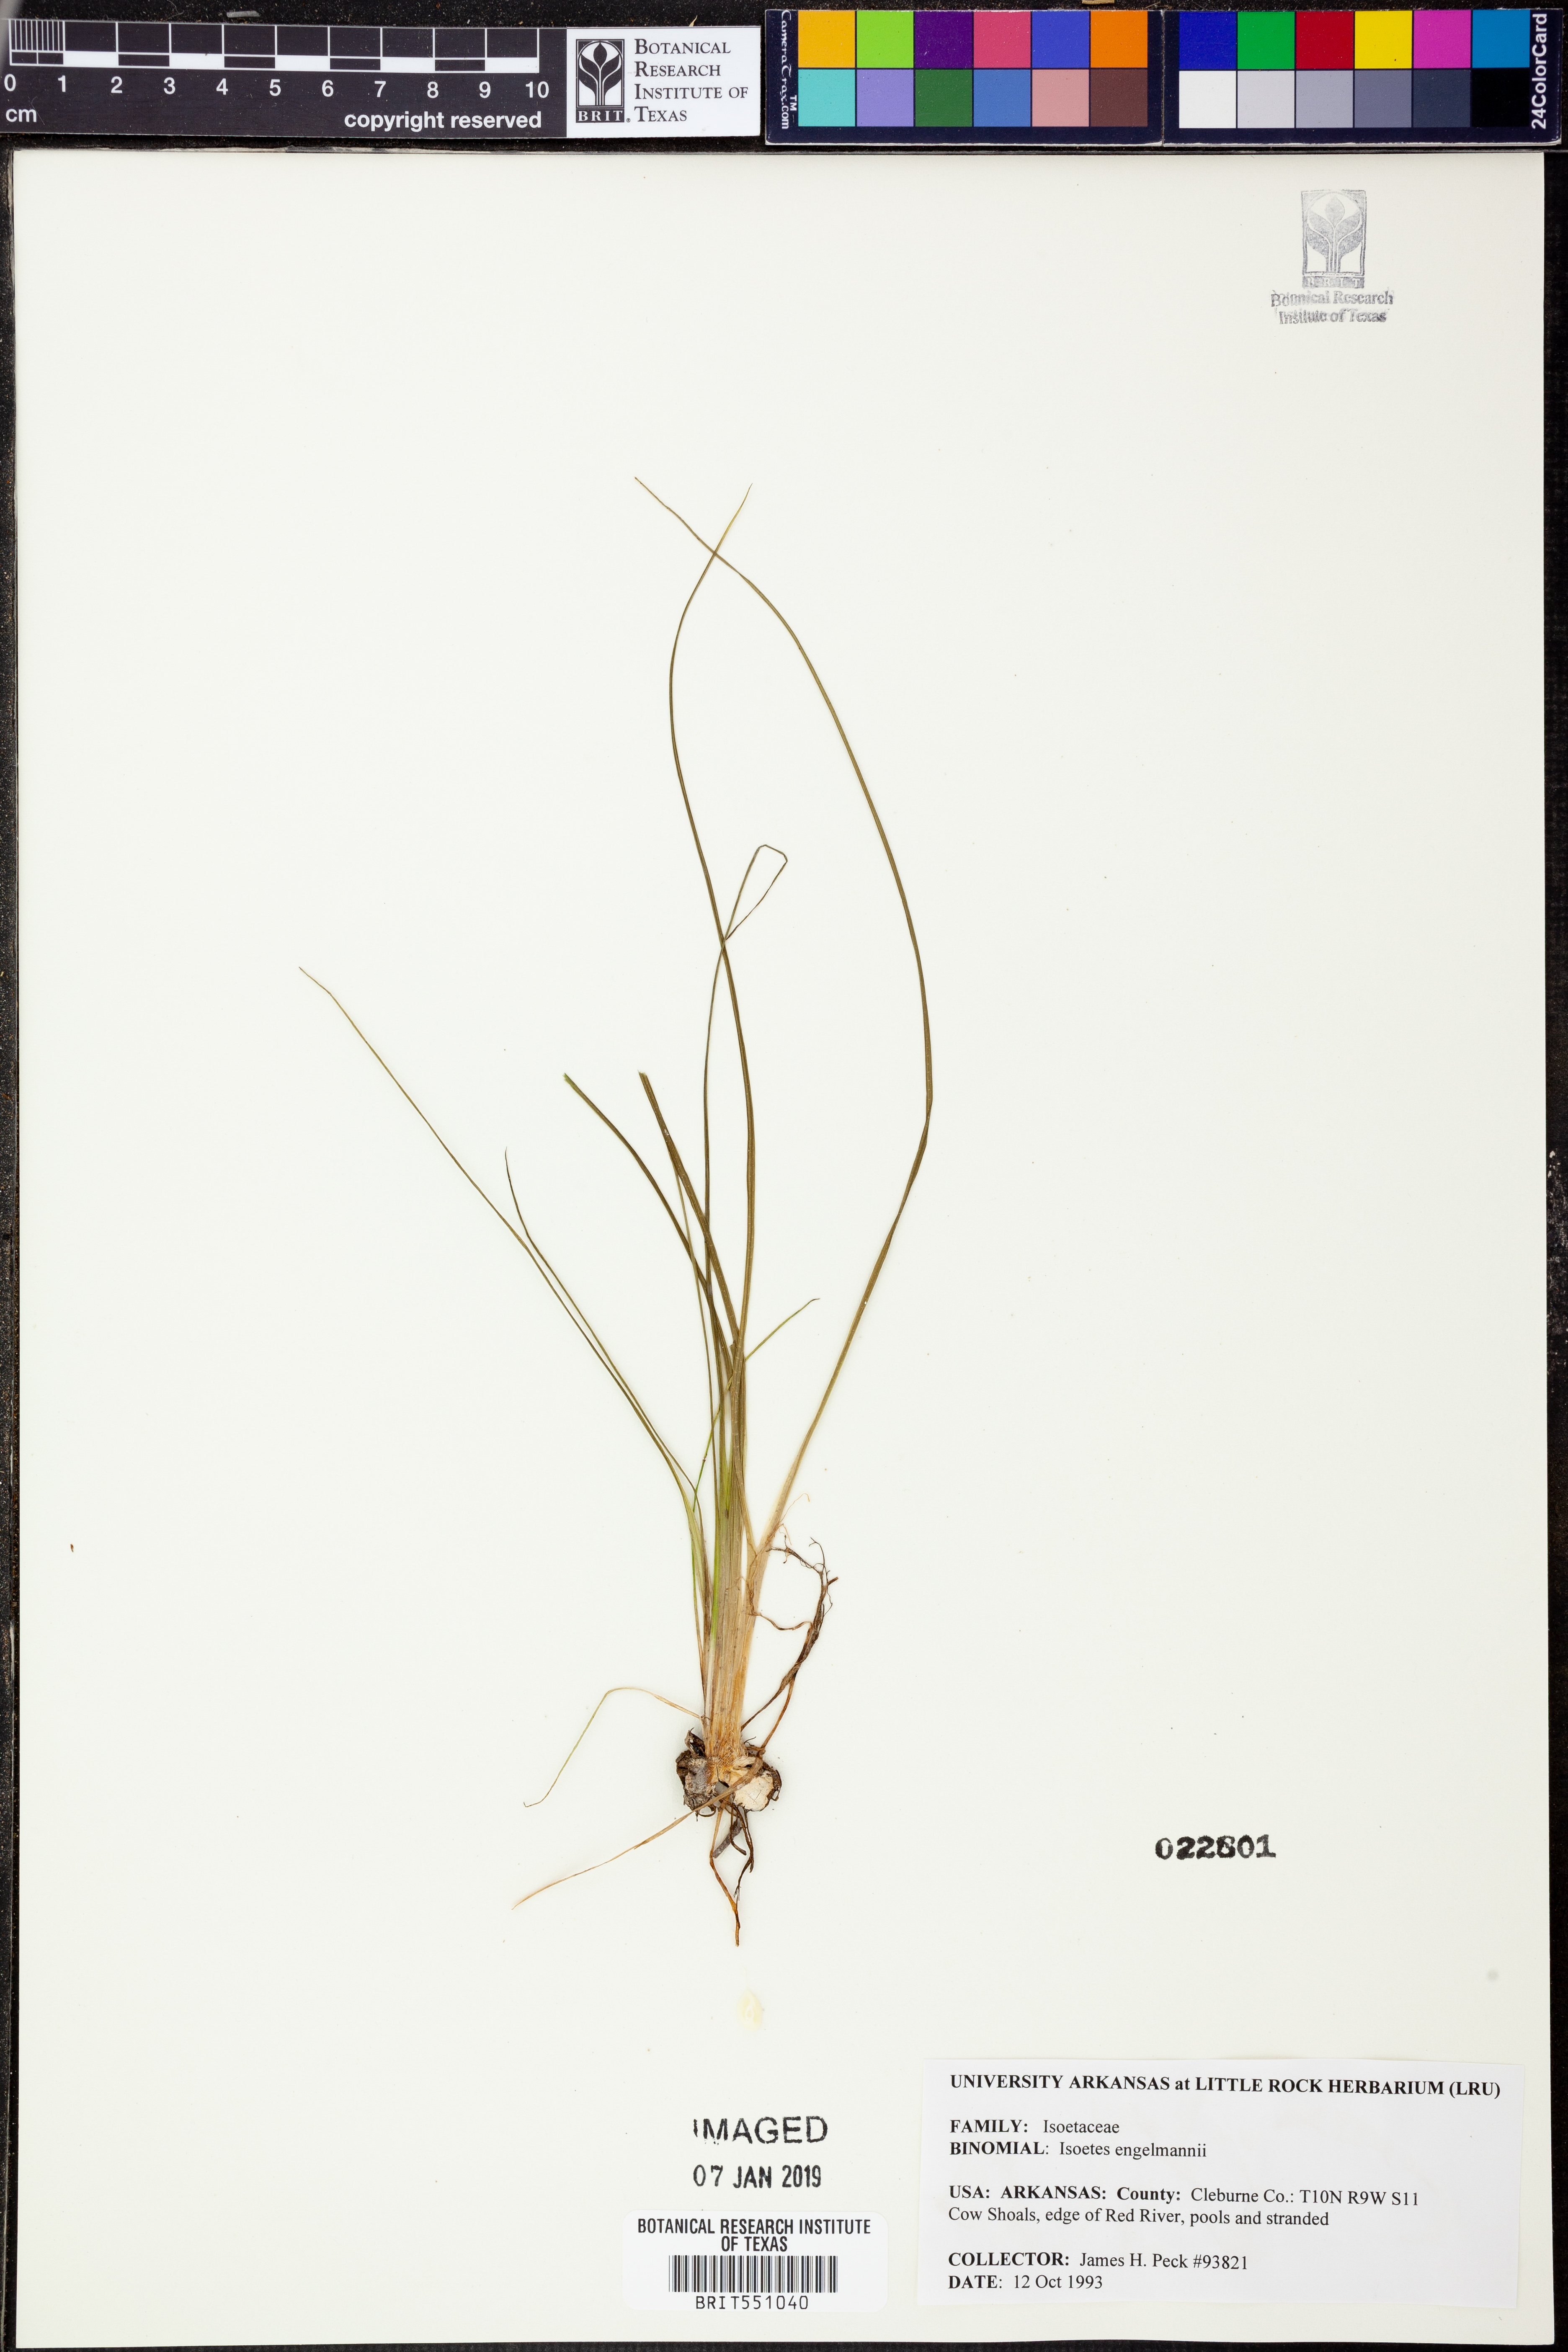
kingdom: Plantae
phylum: Tracheophyta
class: Lycopodiopsida
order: Isoetales
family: Isoetaceae
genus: Isoetes
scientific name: Isoetes engelmannii
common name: Engelmann's quillwort
